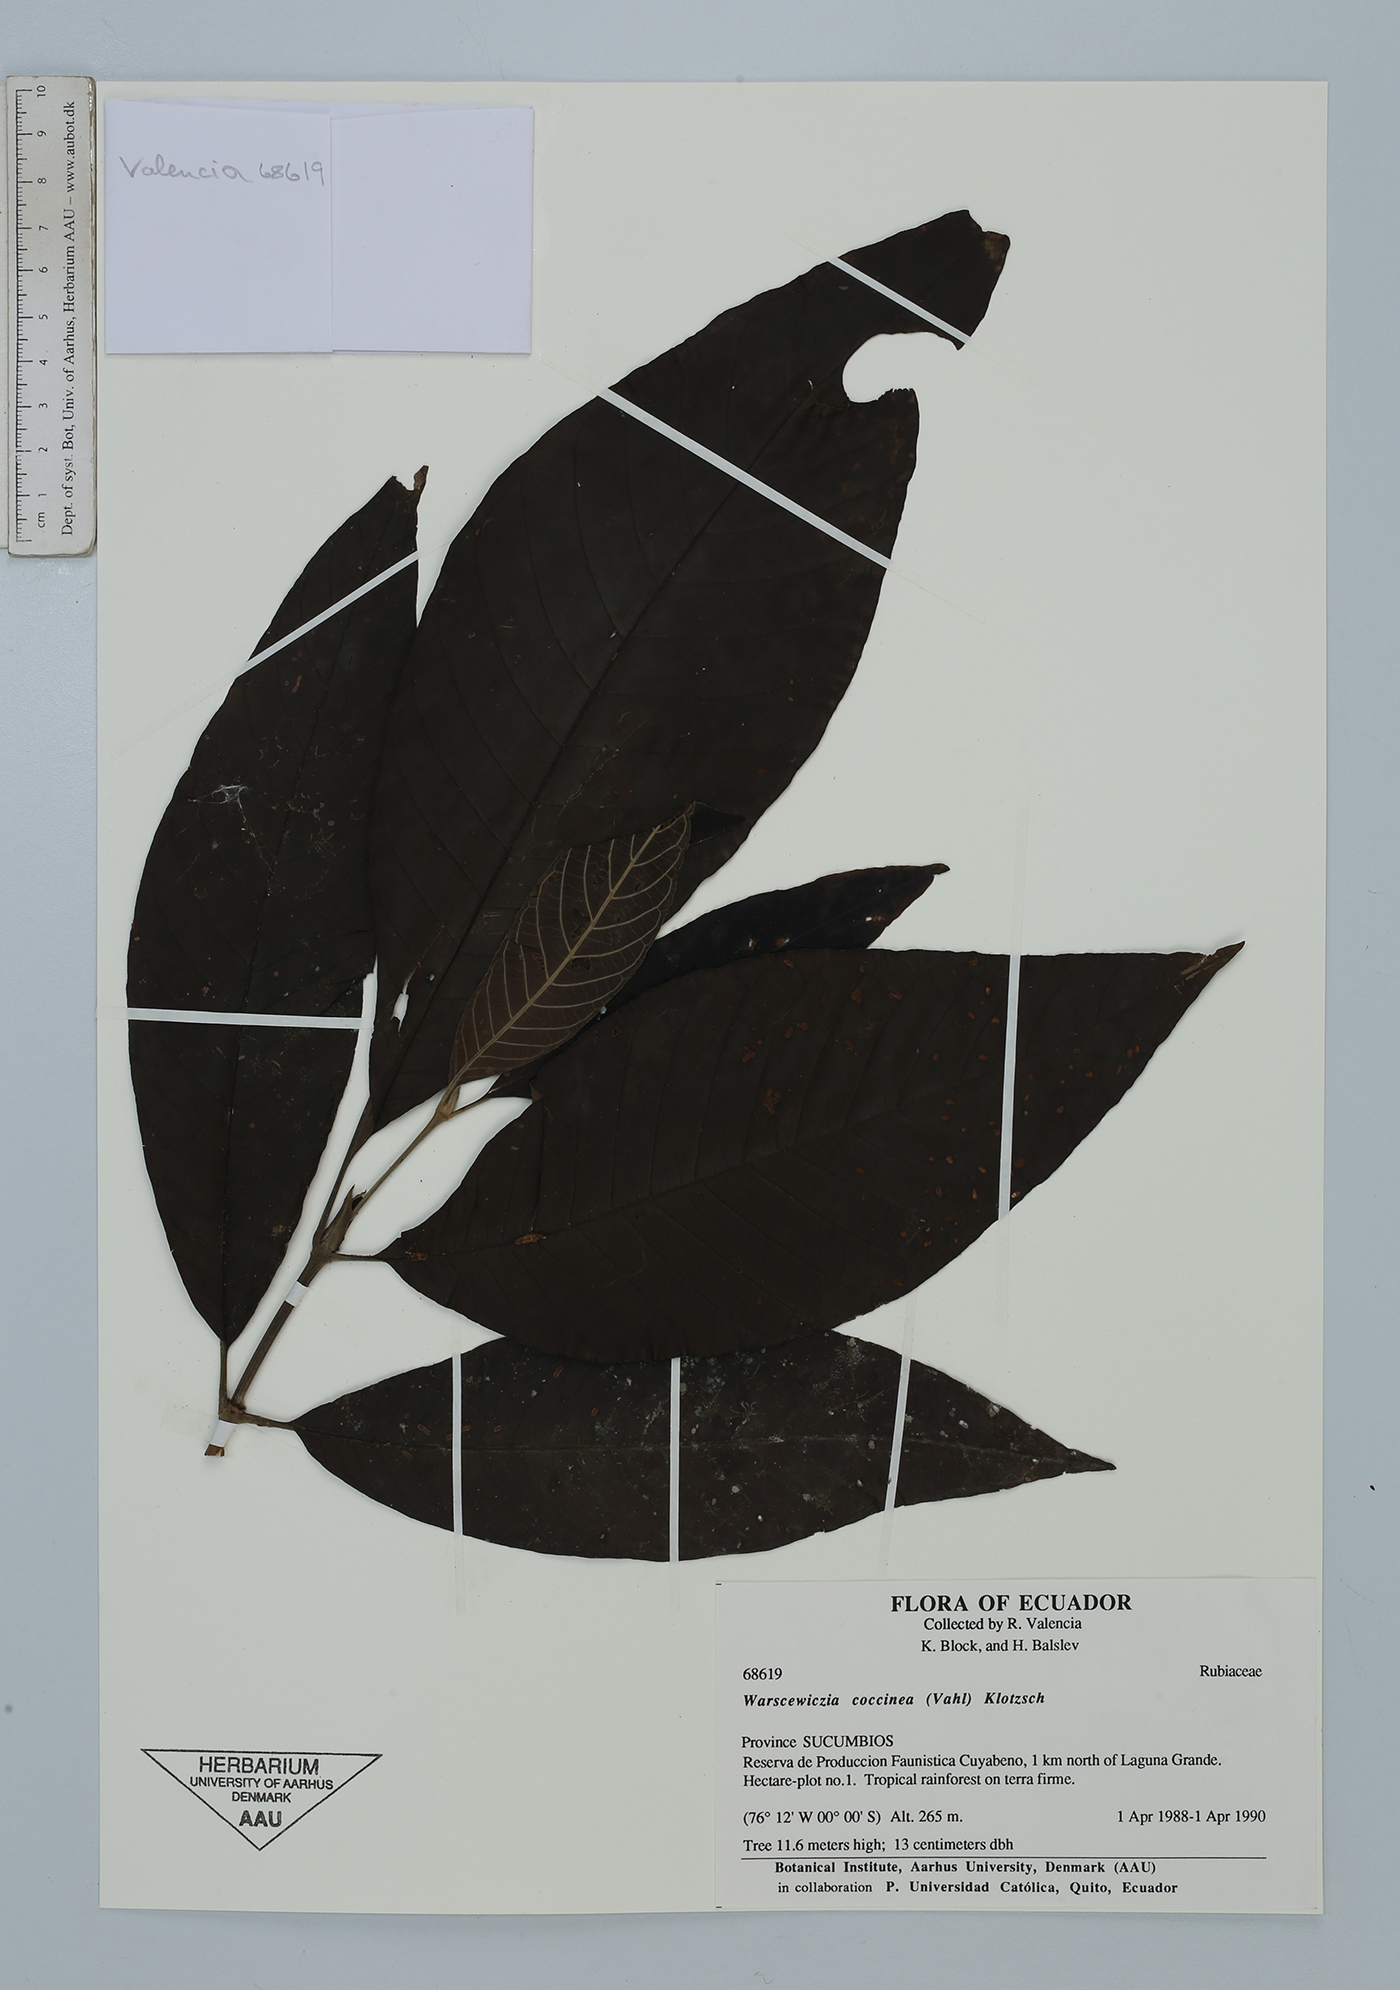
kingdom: Plantae
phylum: Tracheophyta
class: Magnoliopsida
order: Gentianales
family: Rubiaceae
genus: Warszewiczia
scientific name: Warszewiczia coccinea
